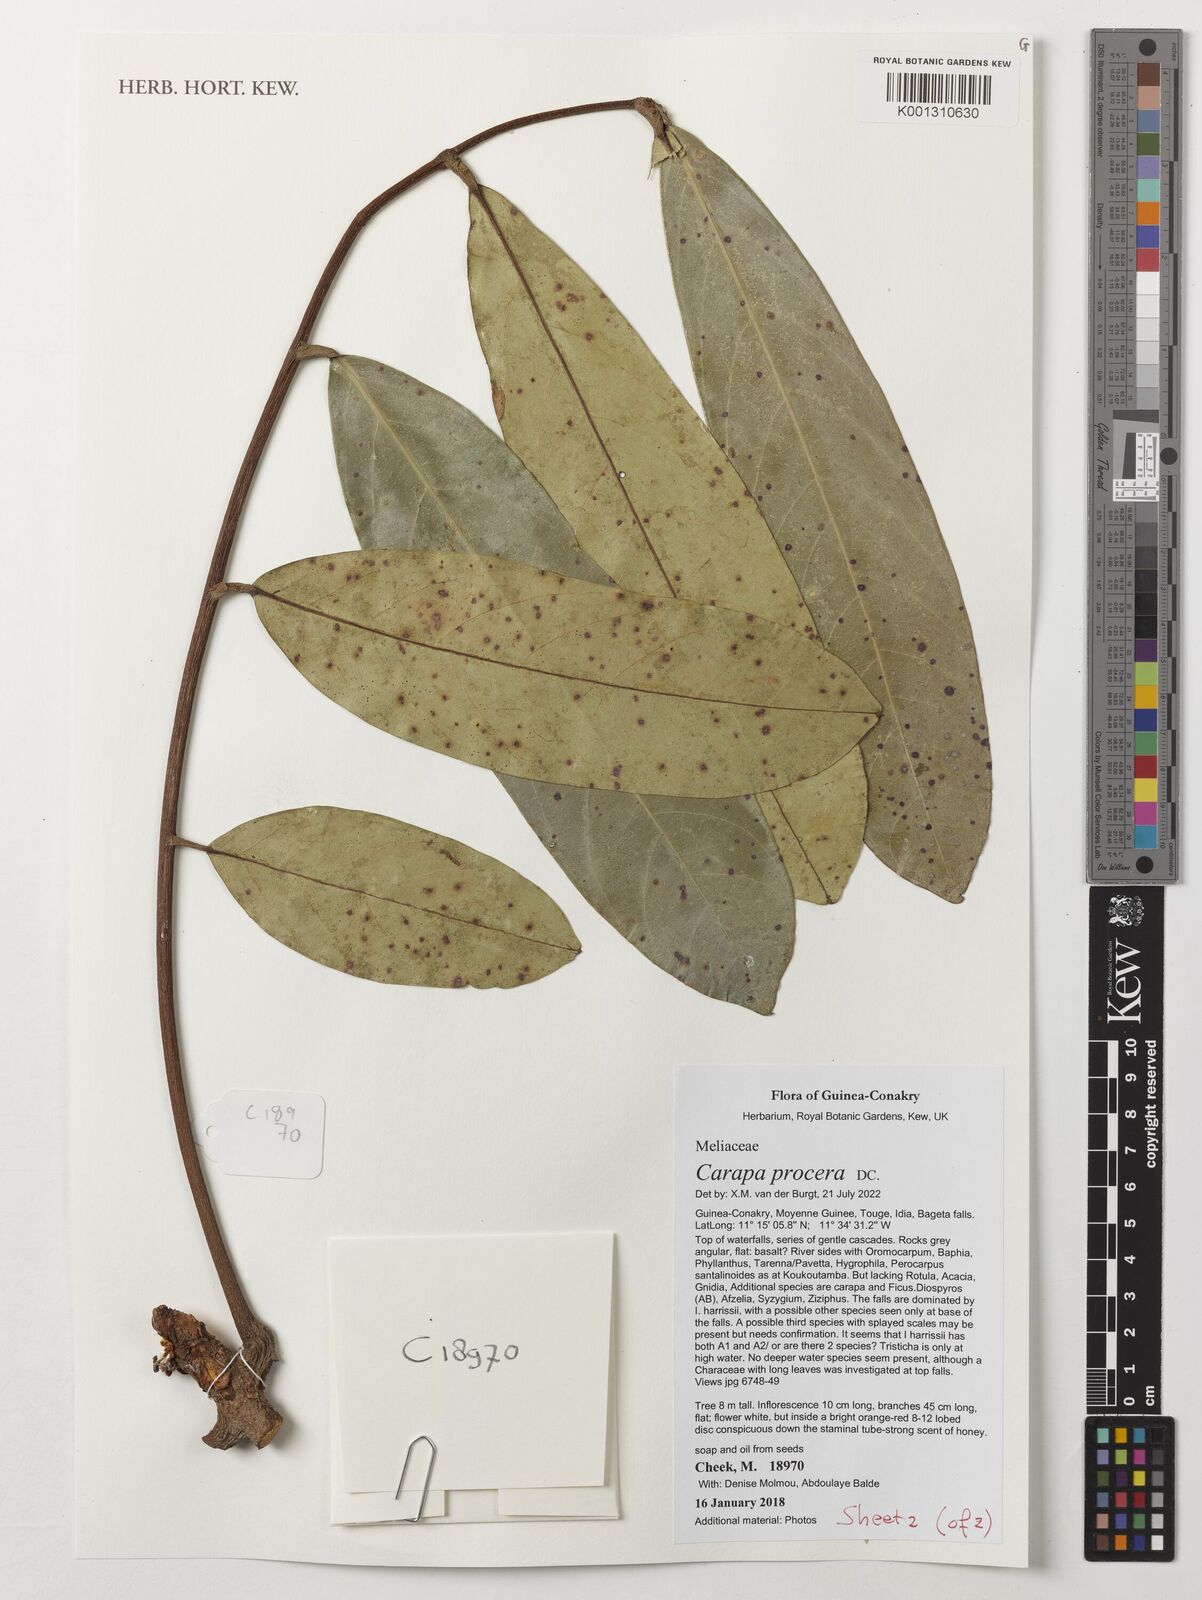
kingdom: Plantae
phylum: Tracheophyta
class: Magnoliopsida
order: Sapindales
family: Meliaceae
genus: Carapa
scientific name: Carapa procera
